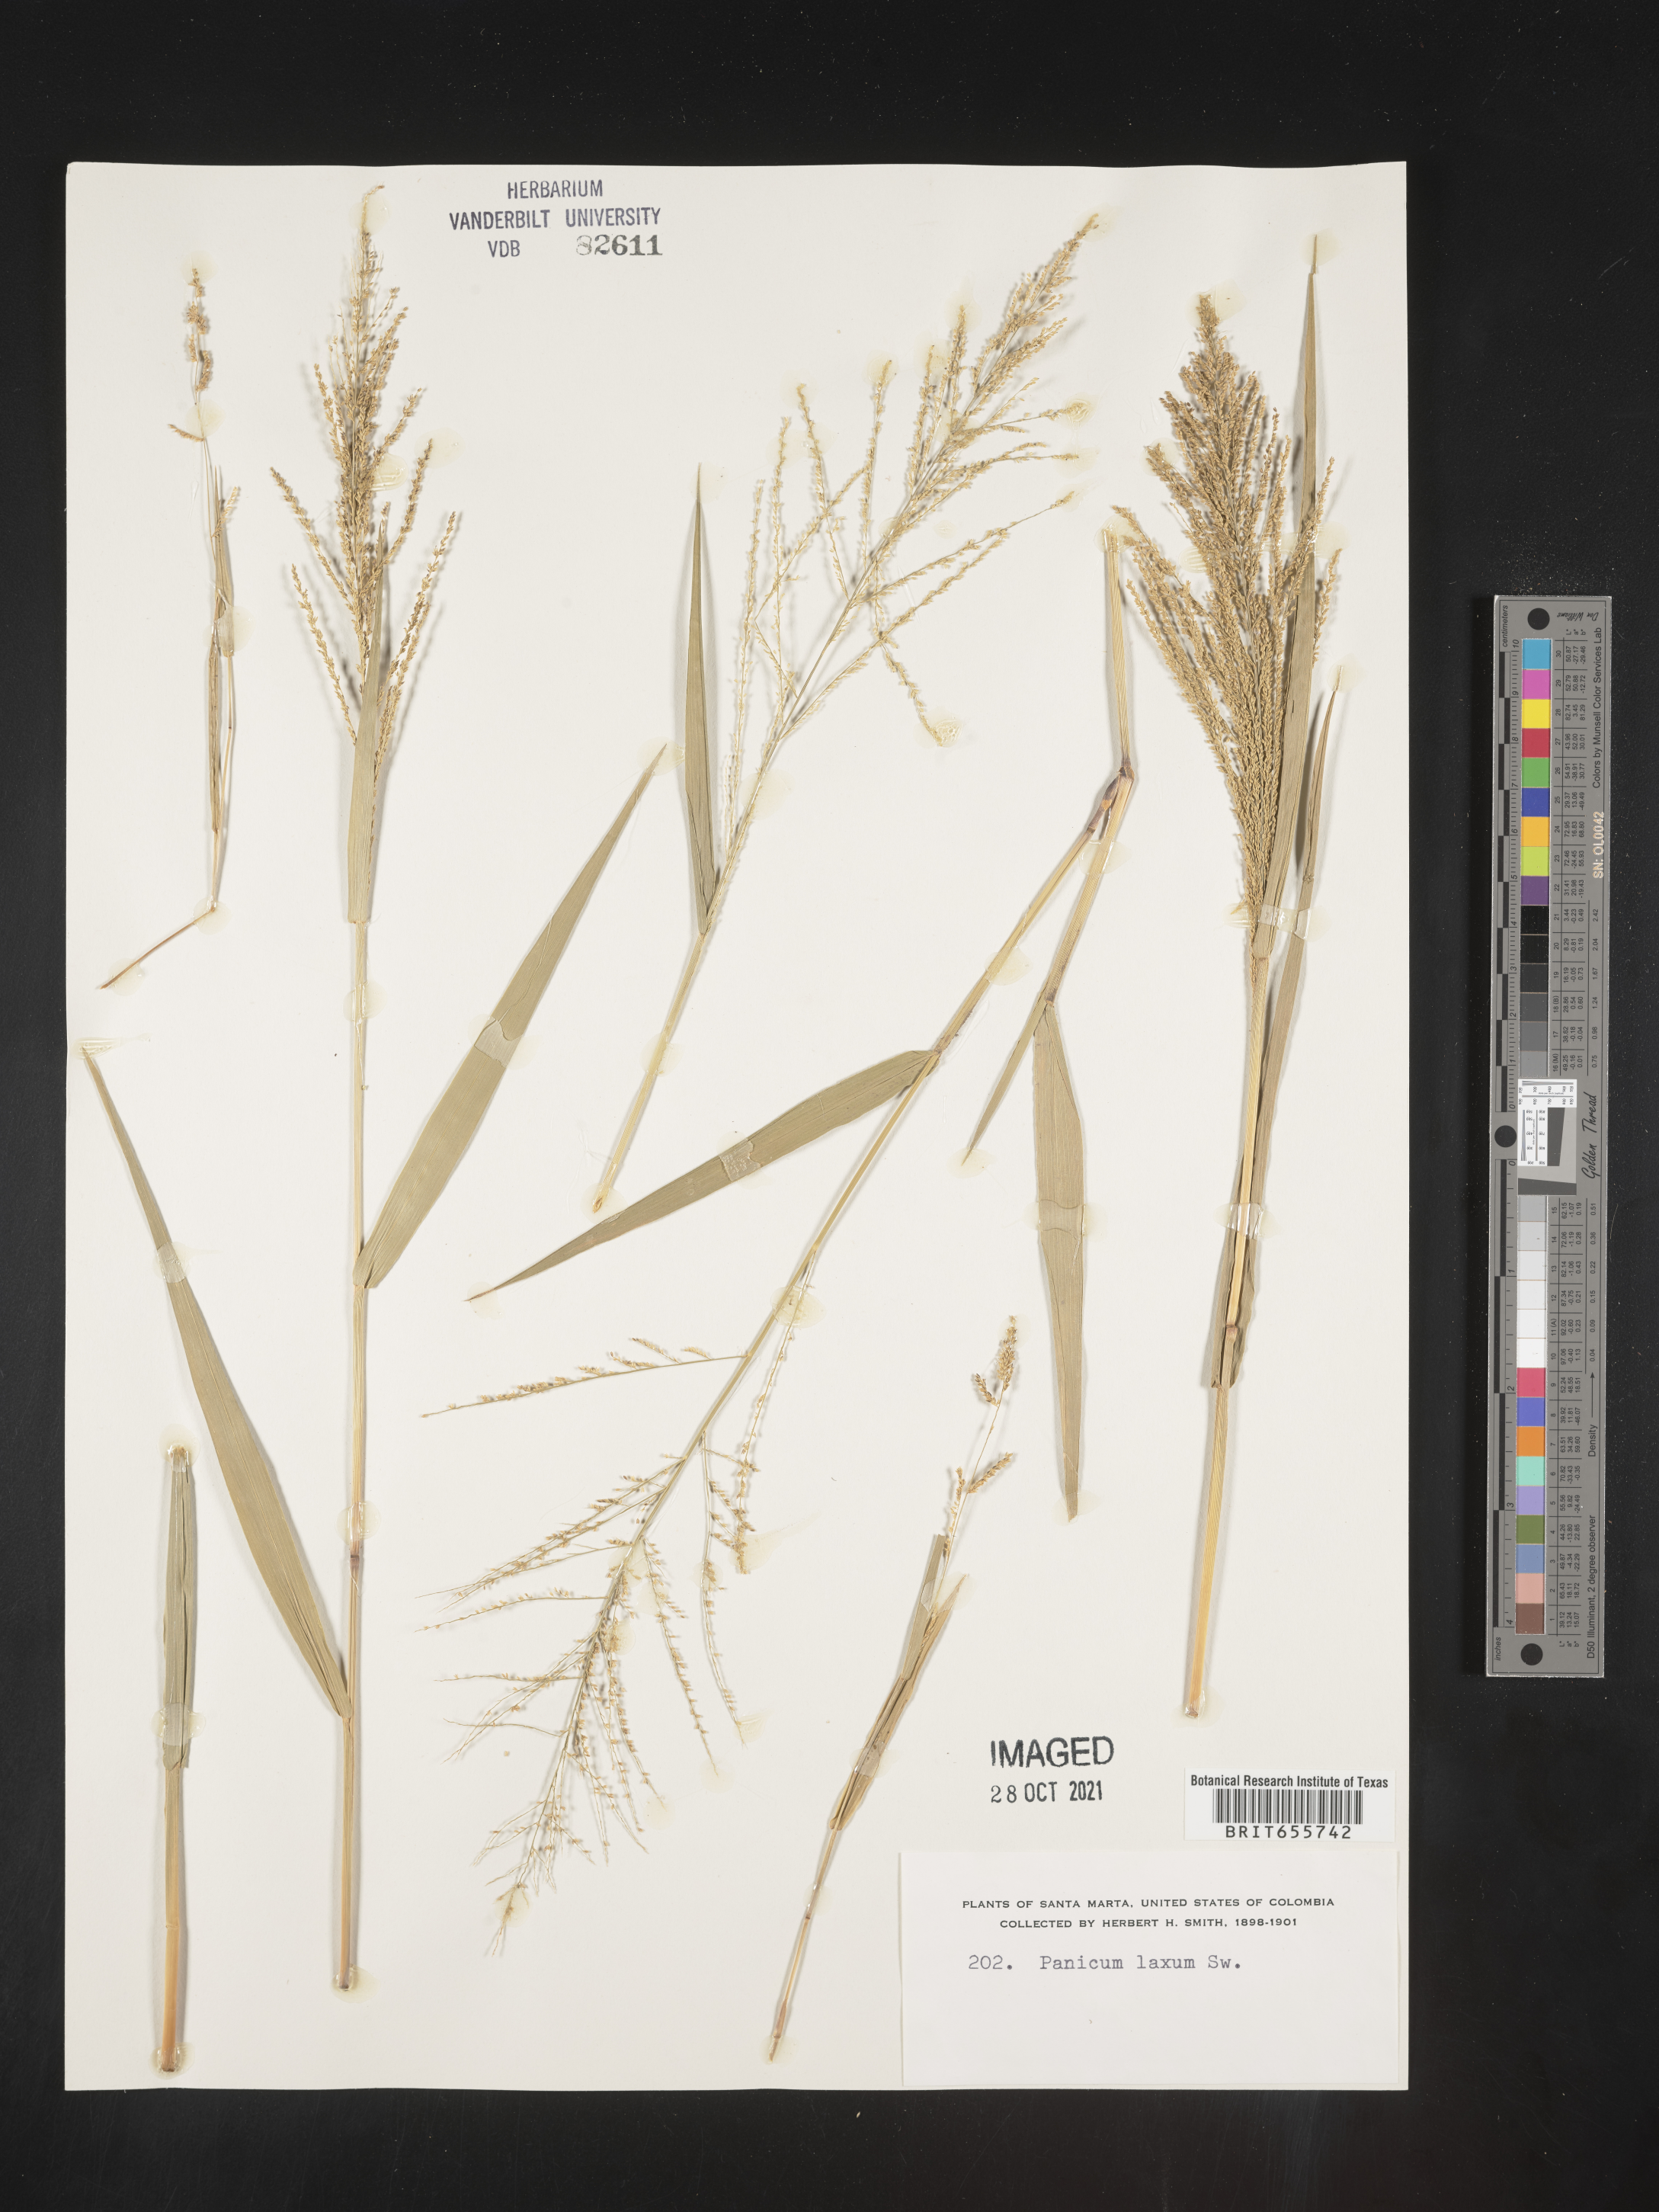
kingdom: Plantae
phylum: Tracheophyta
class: Liliopsida
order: Poales
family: Poaceae
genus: Panicum
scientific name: Panicum
